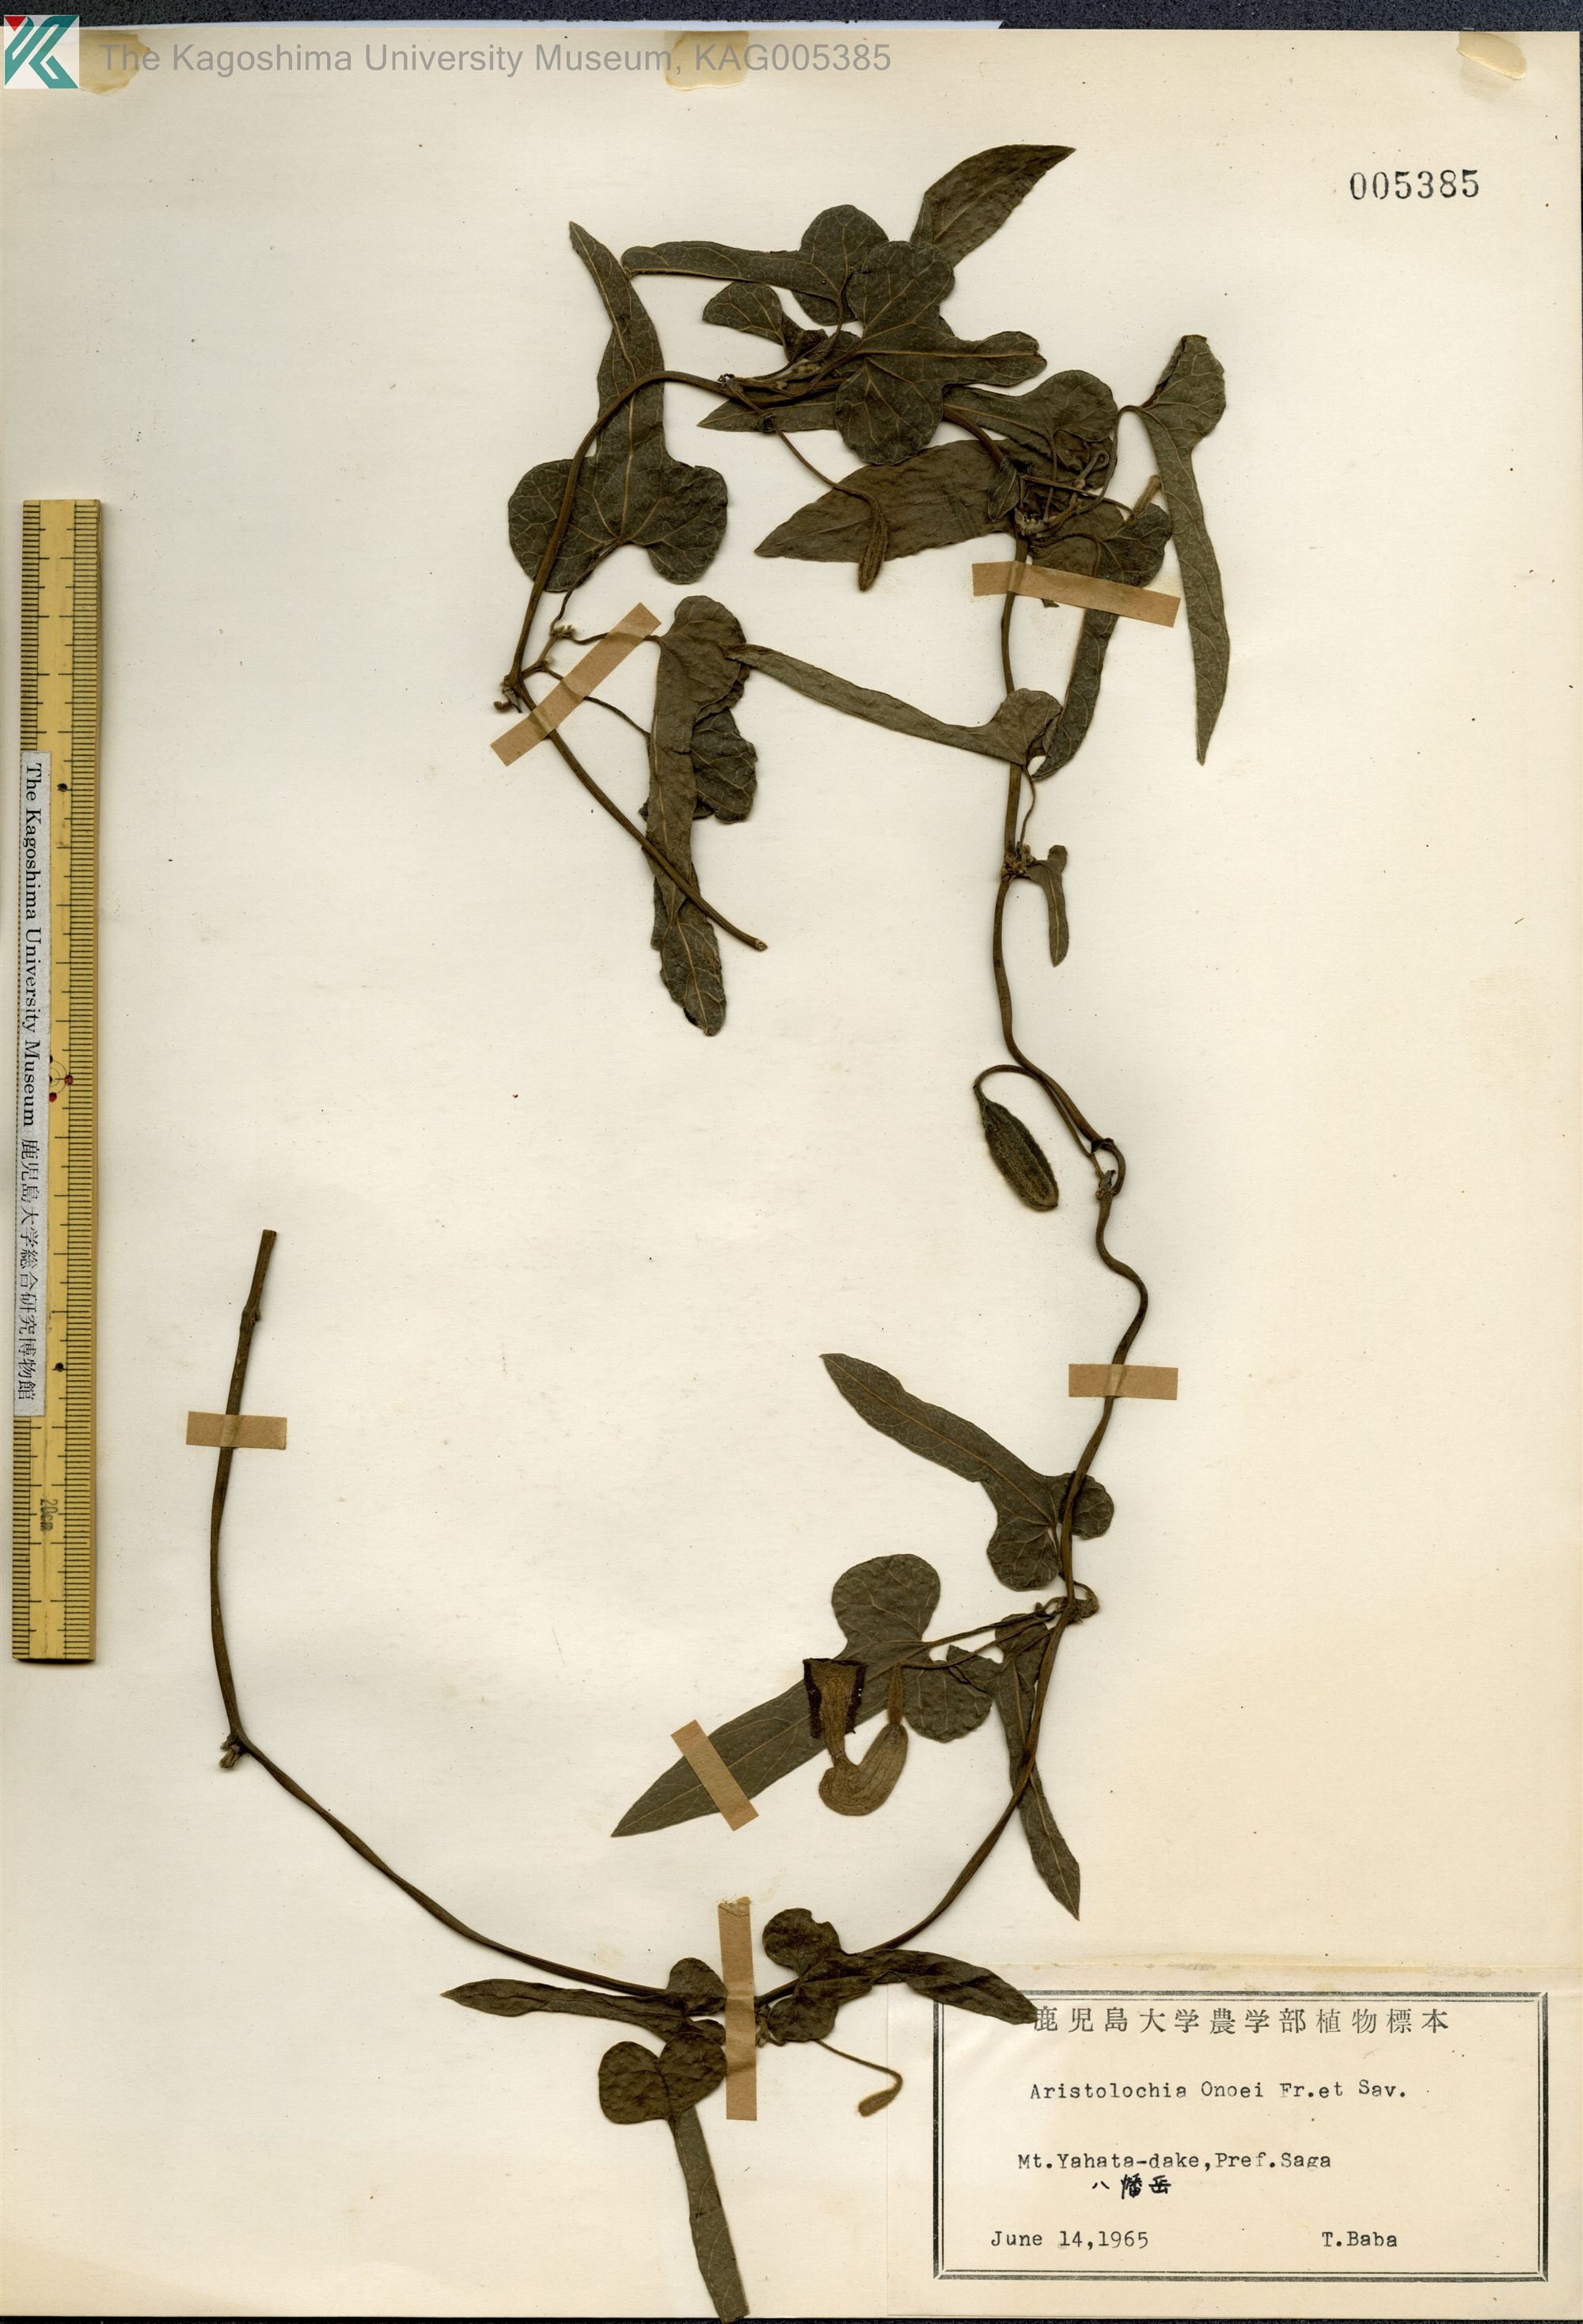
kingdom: Plantae
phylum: Tracheophyta
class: Magnoliopsida
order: Piperales
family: Aristolochiaceae
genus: Isotrema
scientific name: Isotrema shimadae
